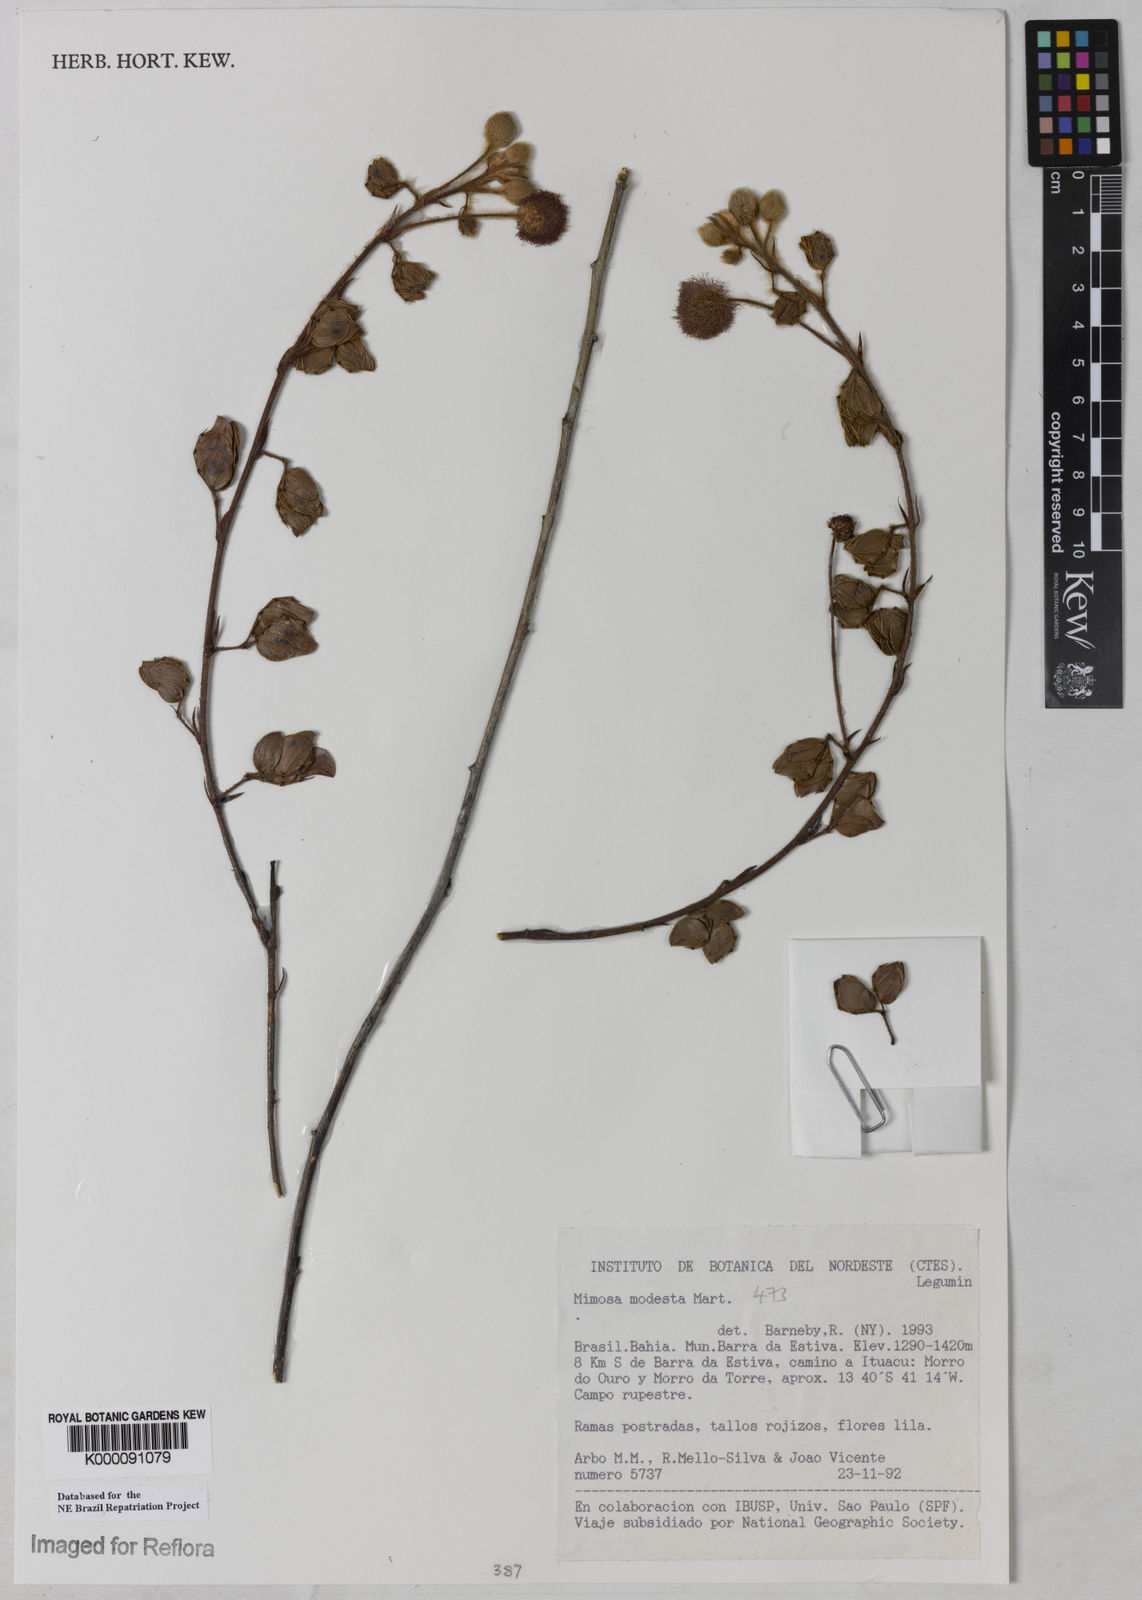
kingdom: Plantae
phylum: Tracheophyta
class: Magnoliopsida
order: Fabales
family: Fabaceae
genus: Mimosa
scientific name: Mimosa modesta
